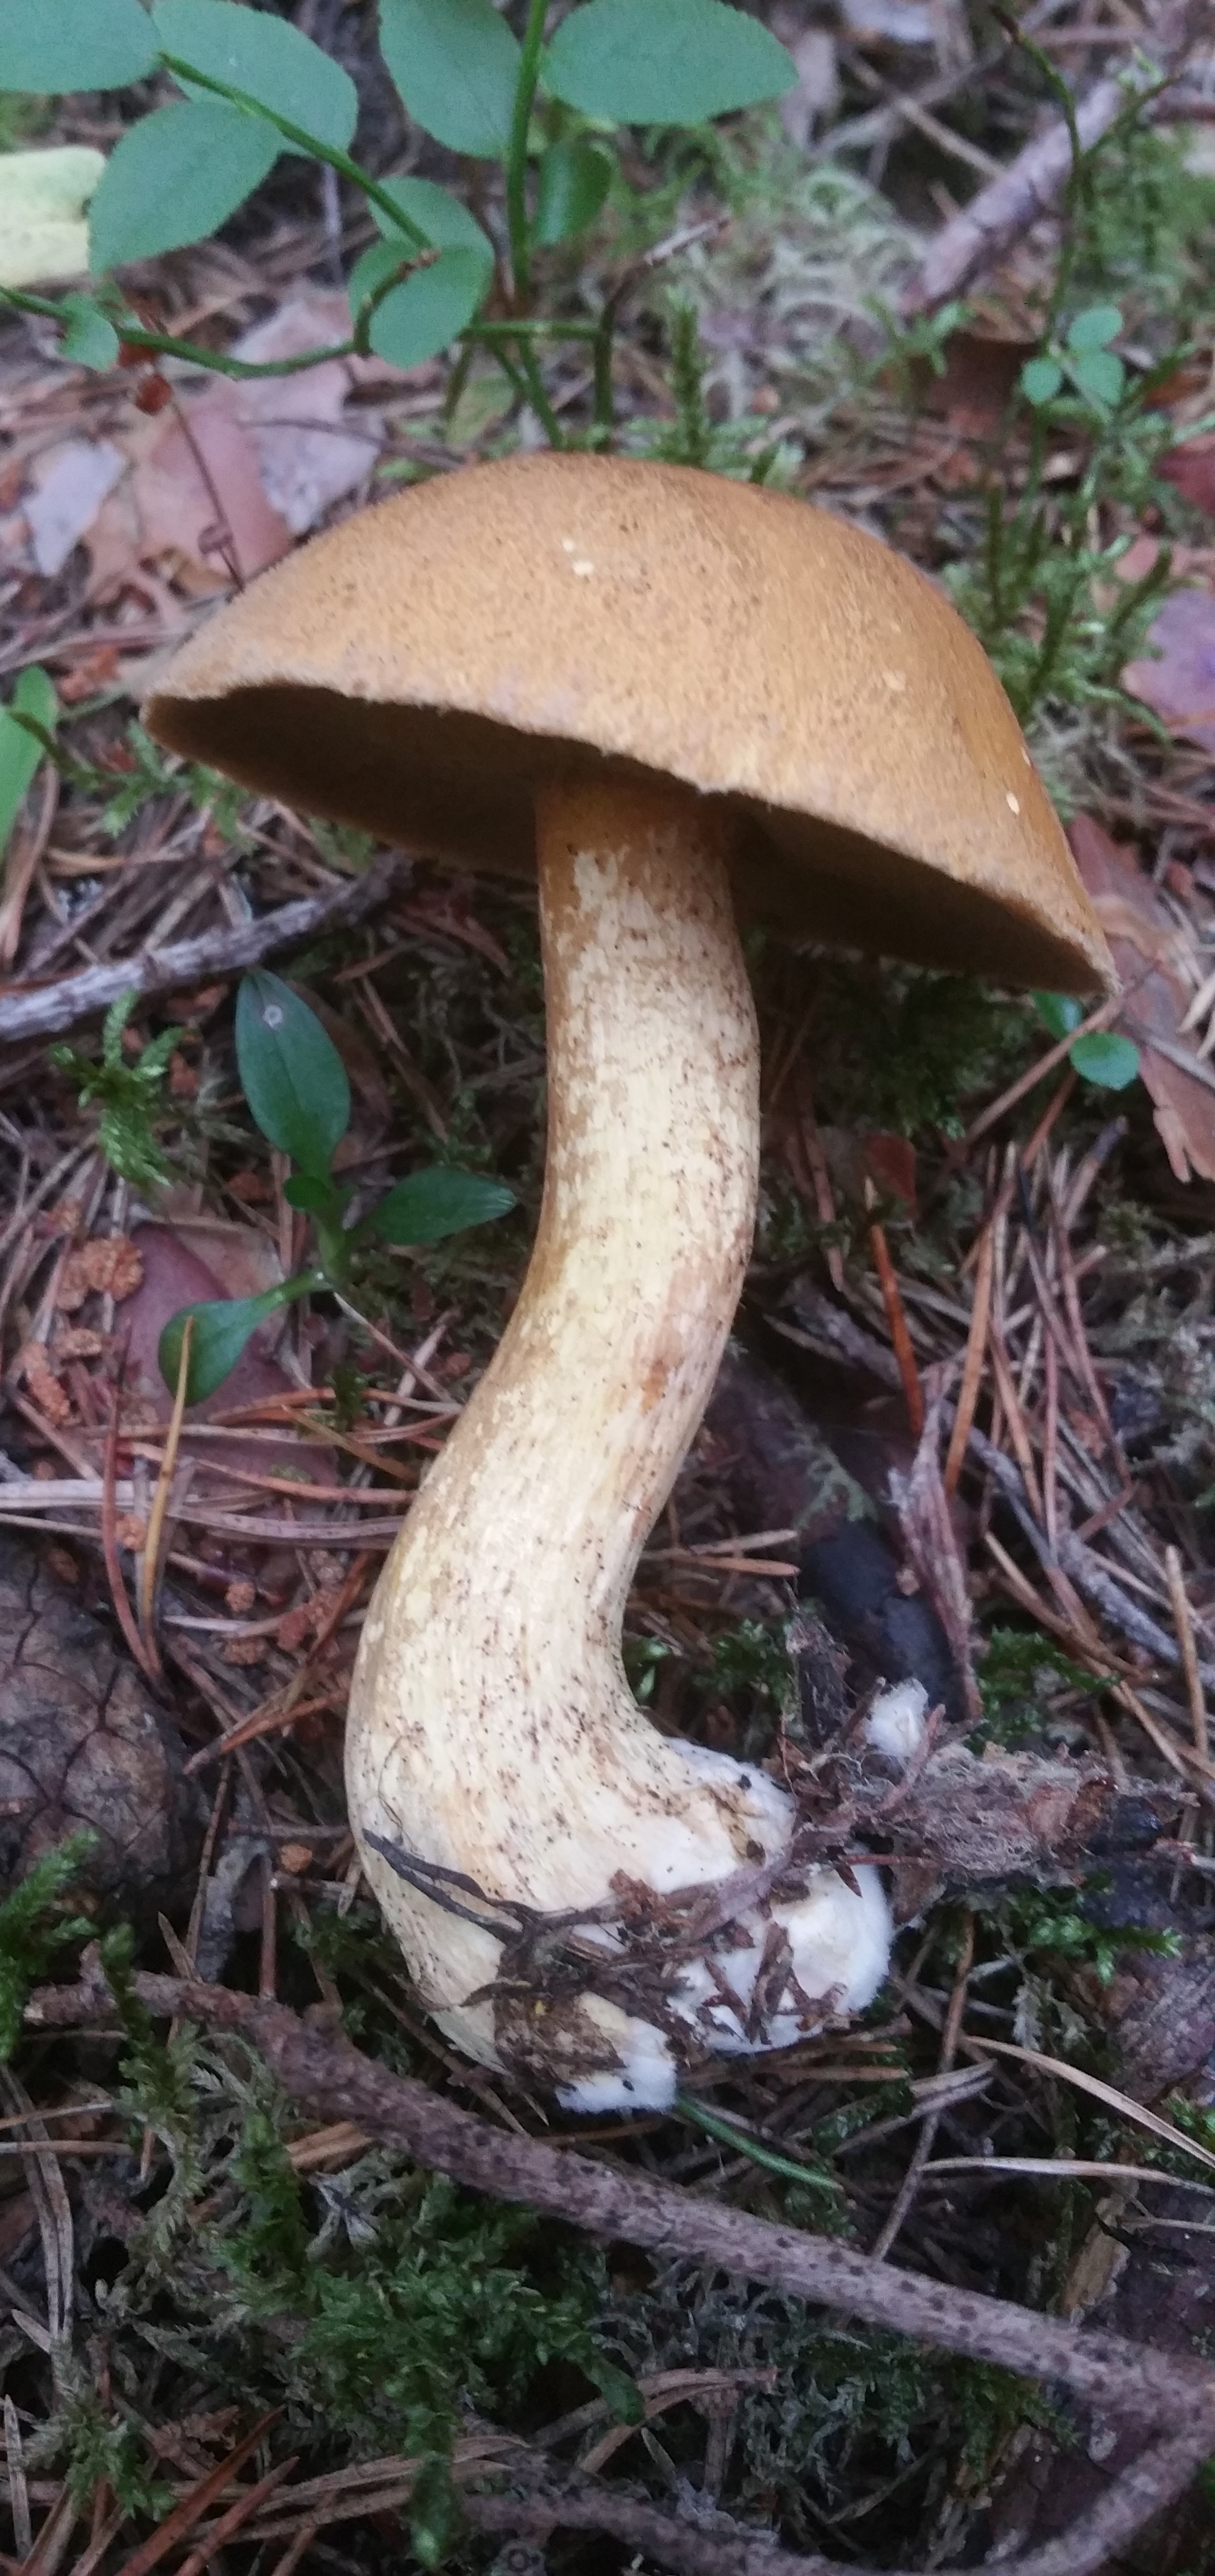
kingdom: Fungi
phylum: Basidiomycota
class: Agaricomycetes
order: Boletales
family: Suillaceae
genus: Suillus
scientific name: Suillus variegatus
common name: Velvet bolete
